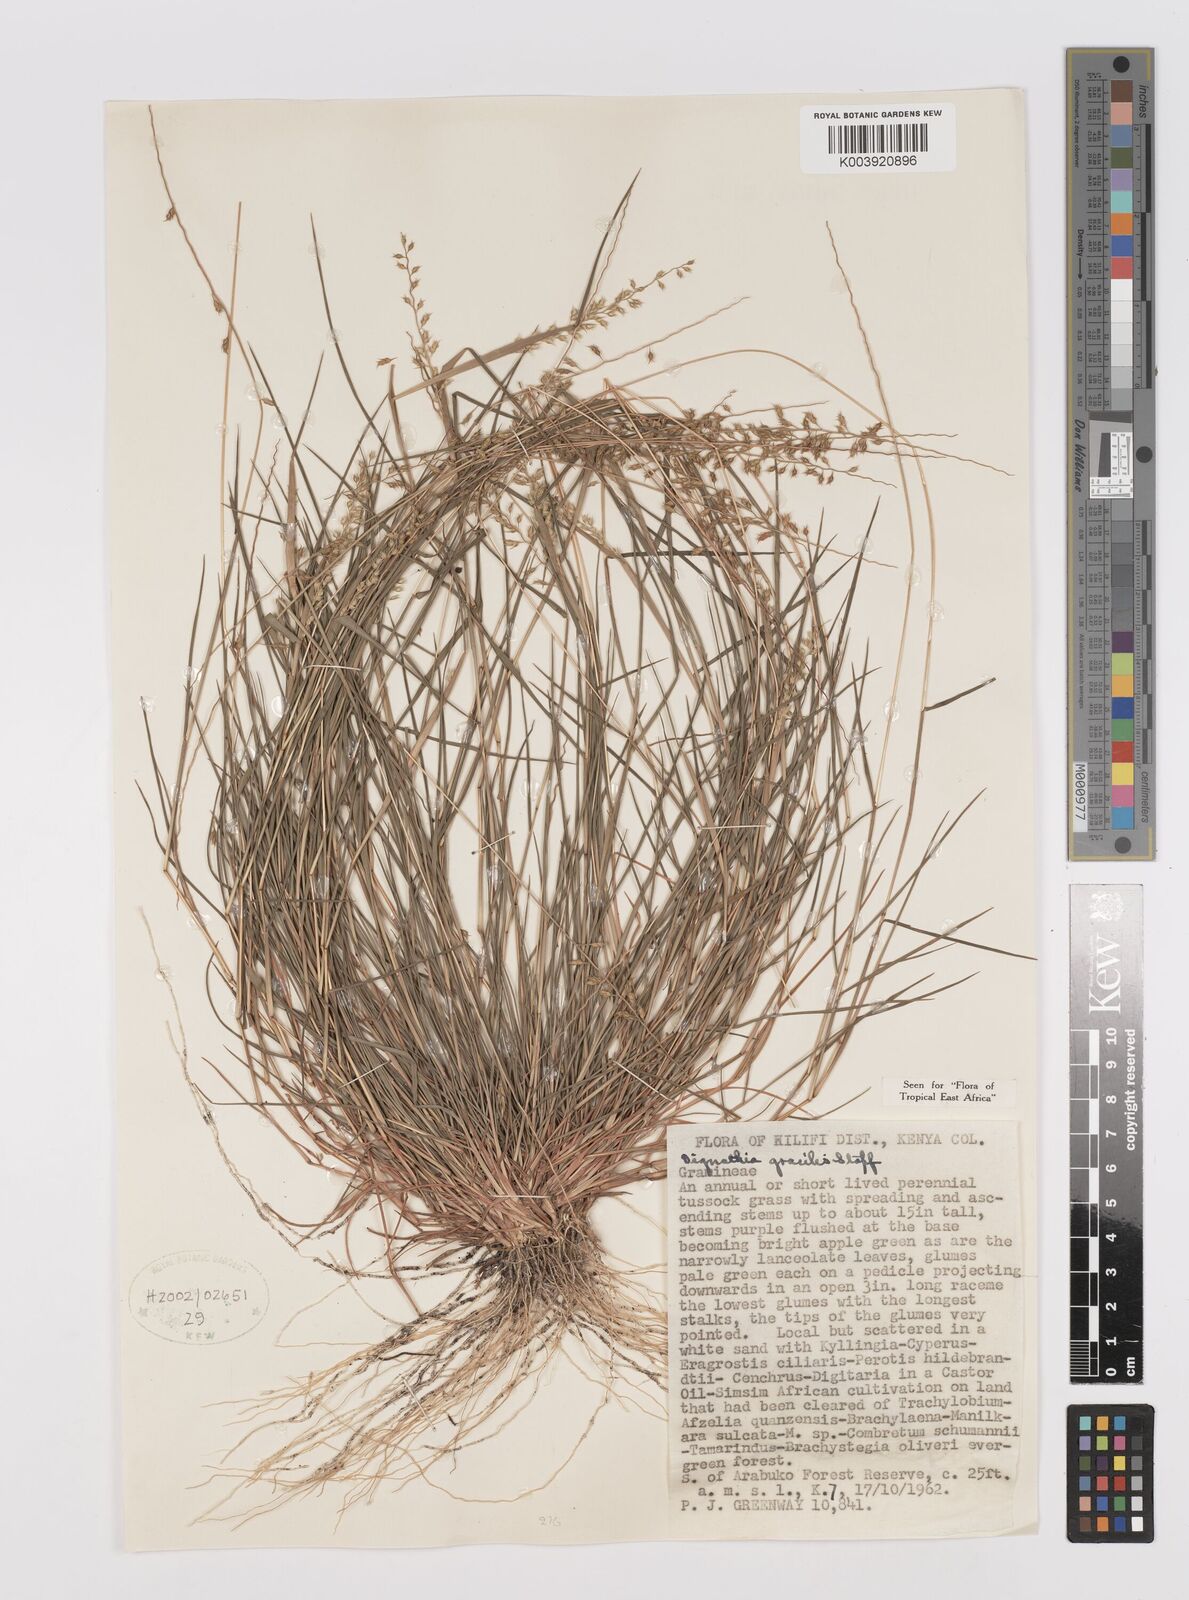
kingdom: Plantae
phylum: Tracheophyta
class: Liliopsida
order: Poales
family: Poaceae
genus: Dignathia
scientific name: Dignathia gracilis
